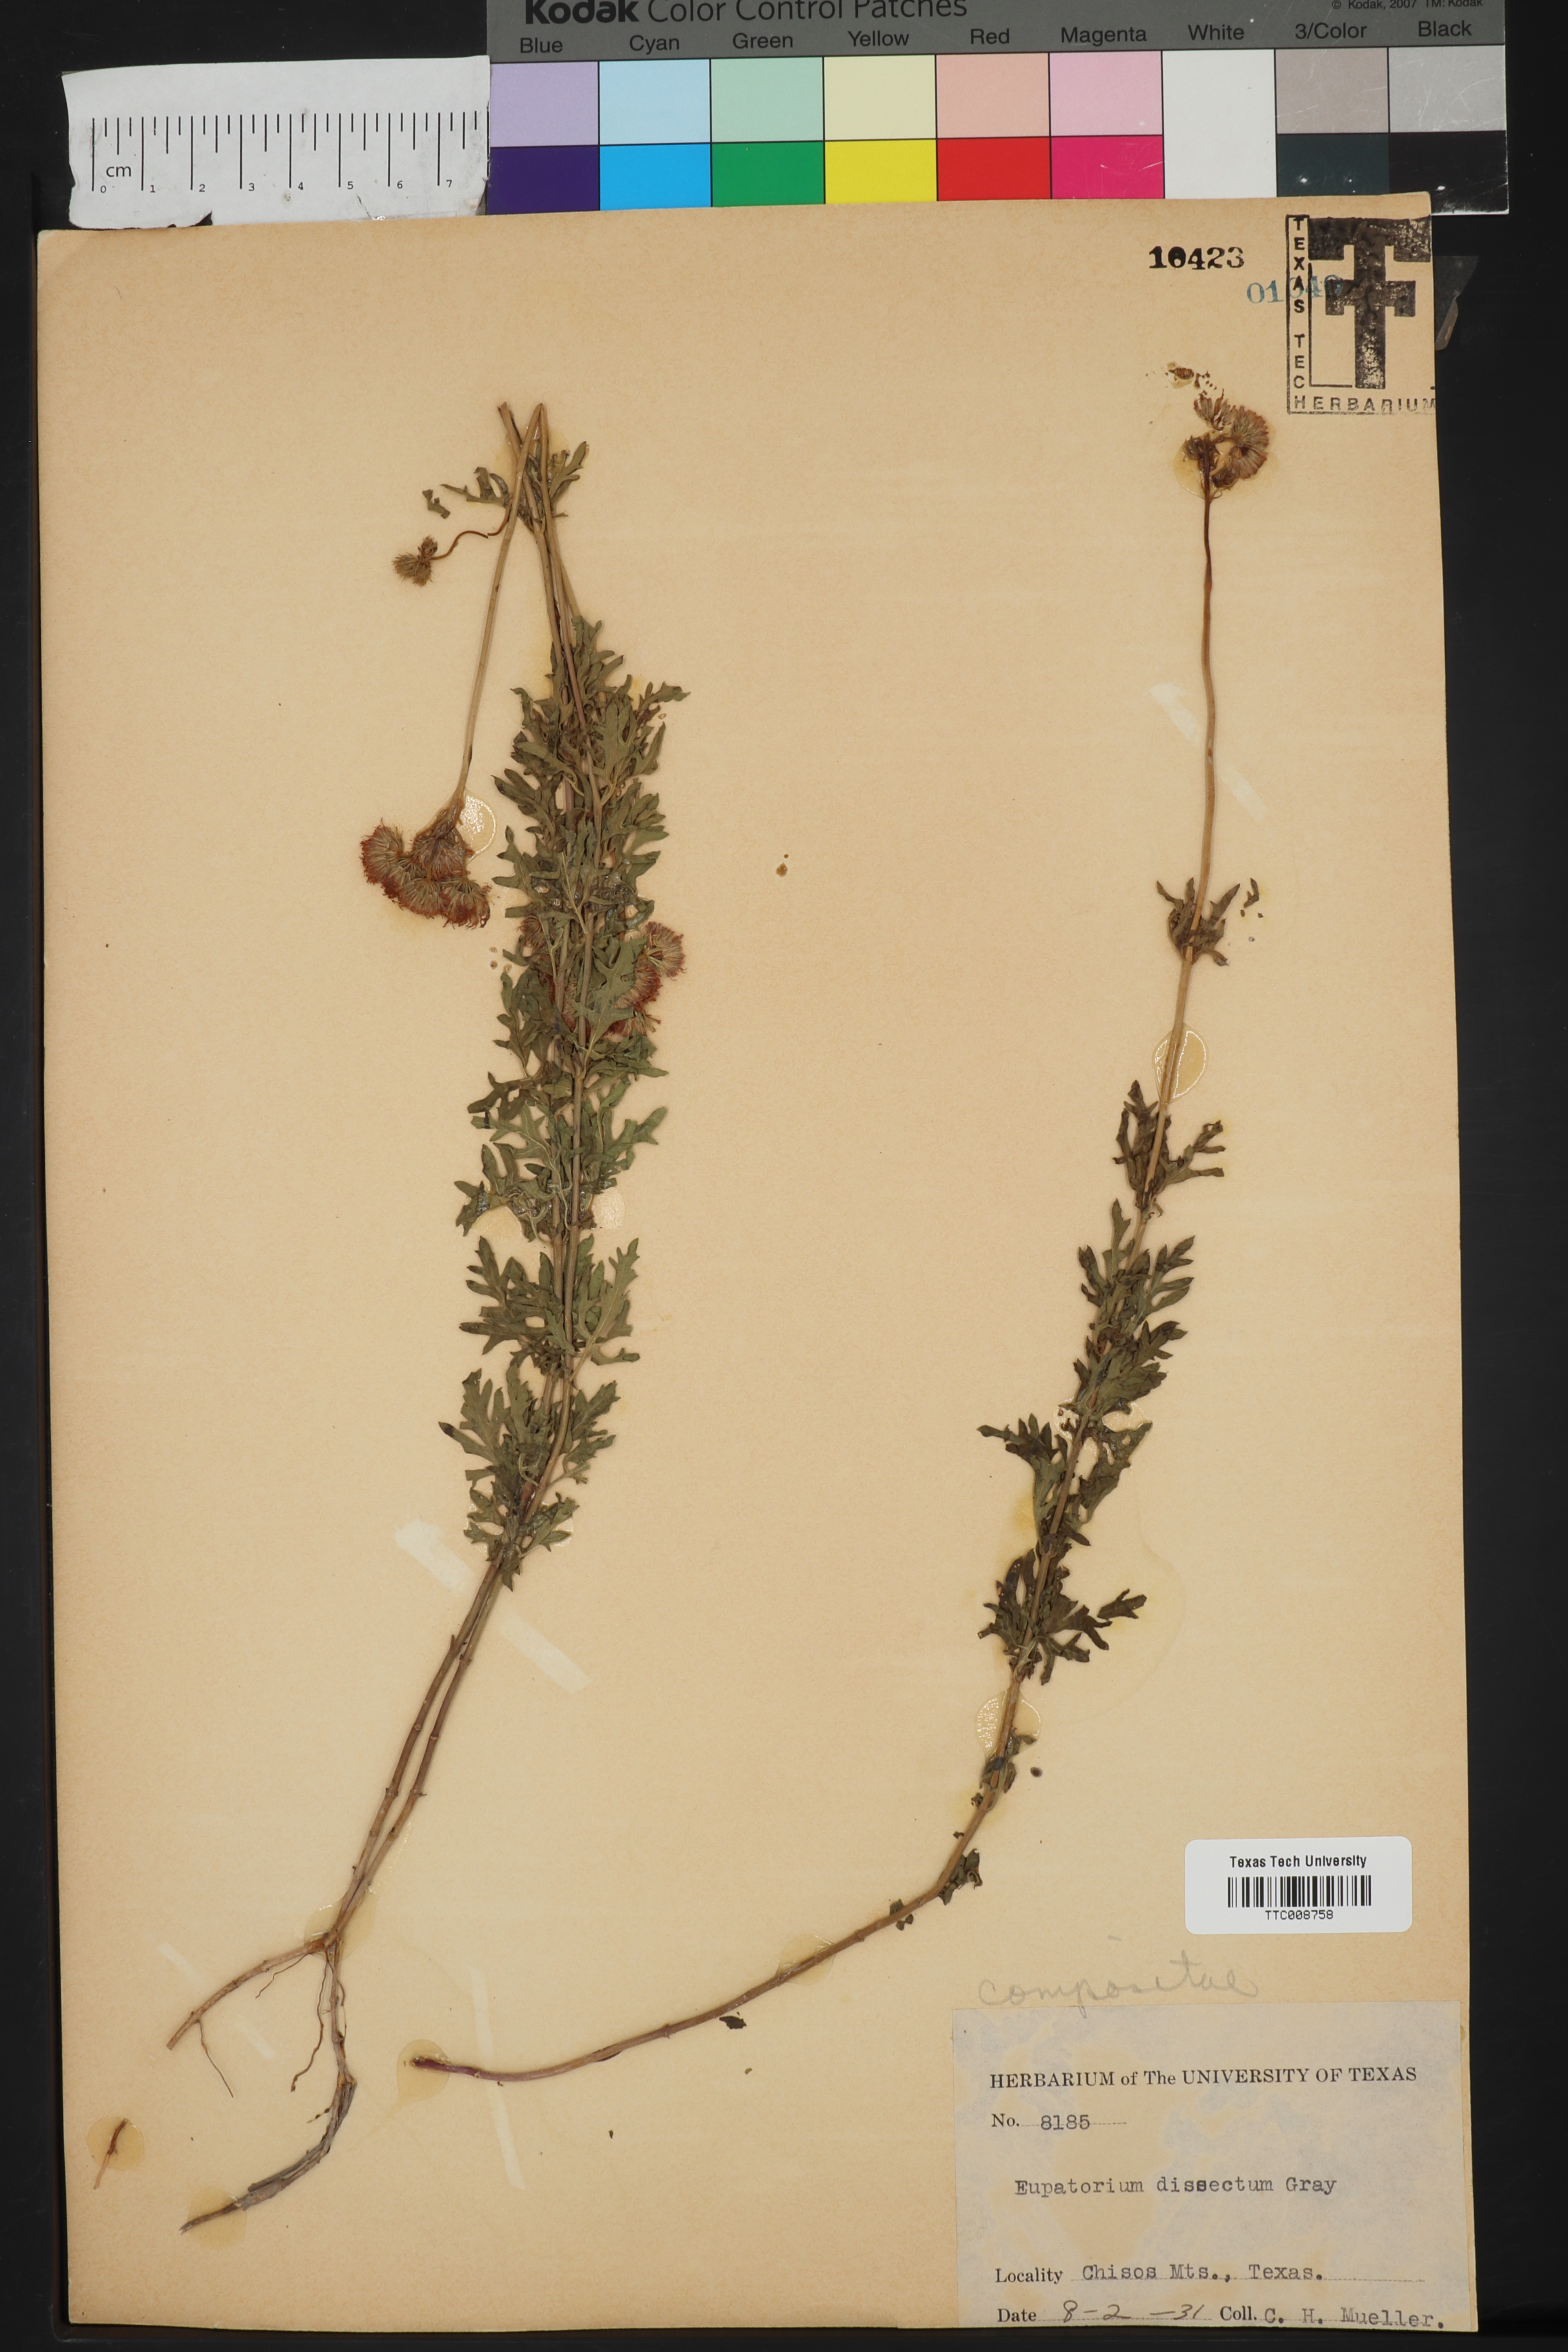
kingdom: Plantae
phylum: Tracheophyta
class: Magnoliopsida
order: Asterales
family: Asteraceae
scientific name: Asteraceae
